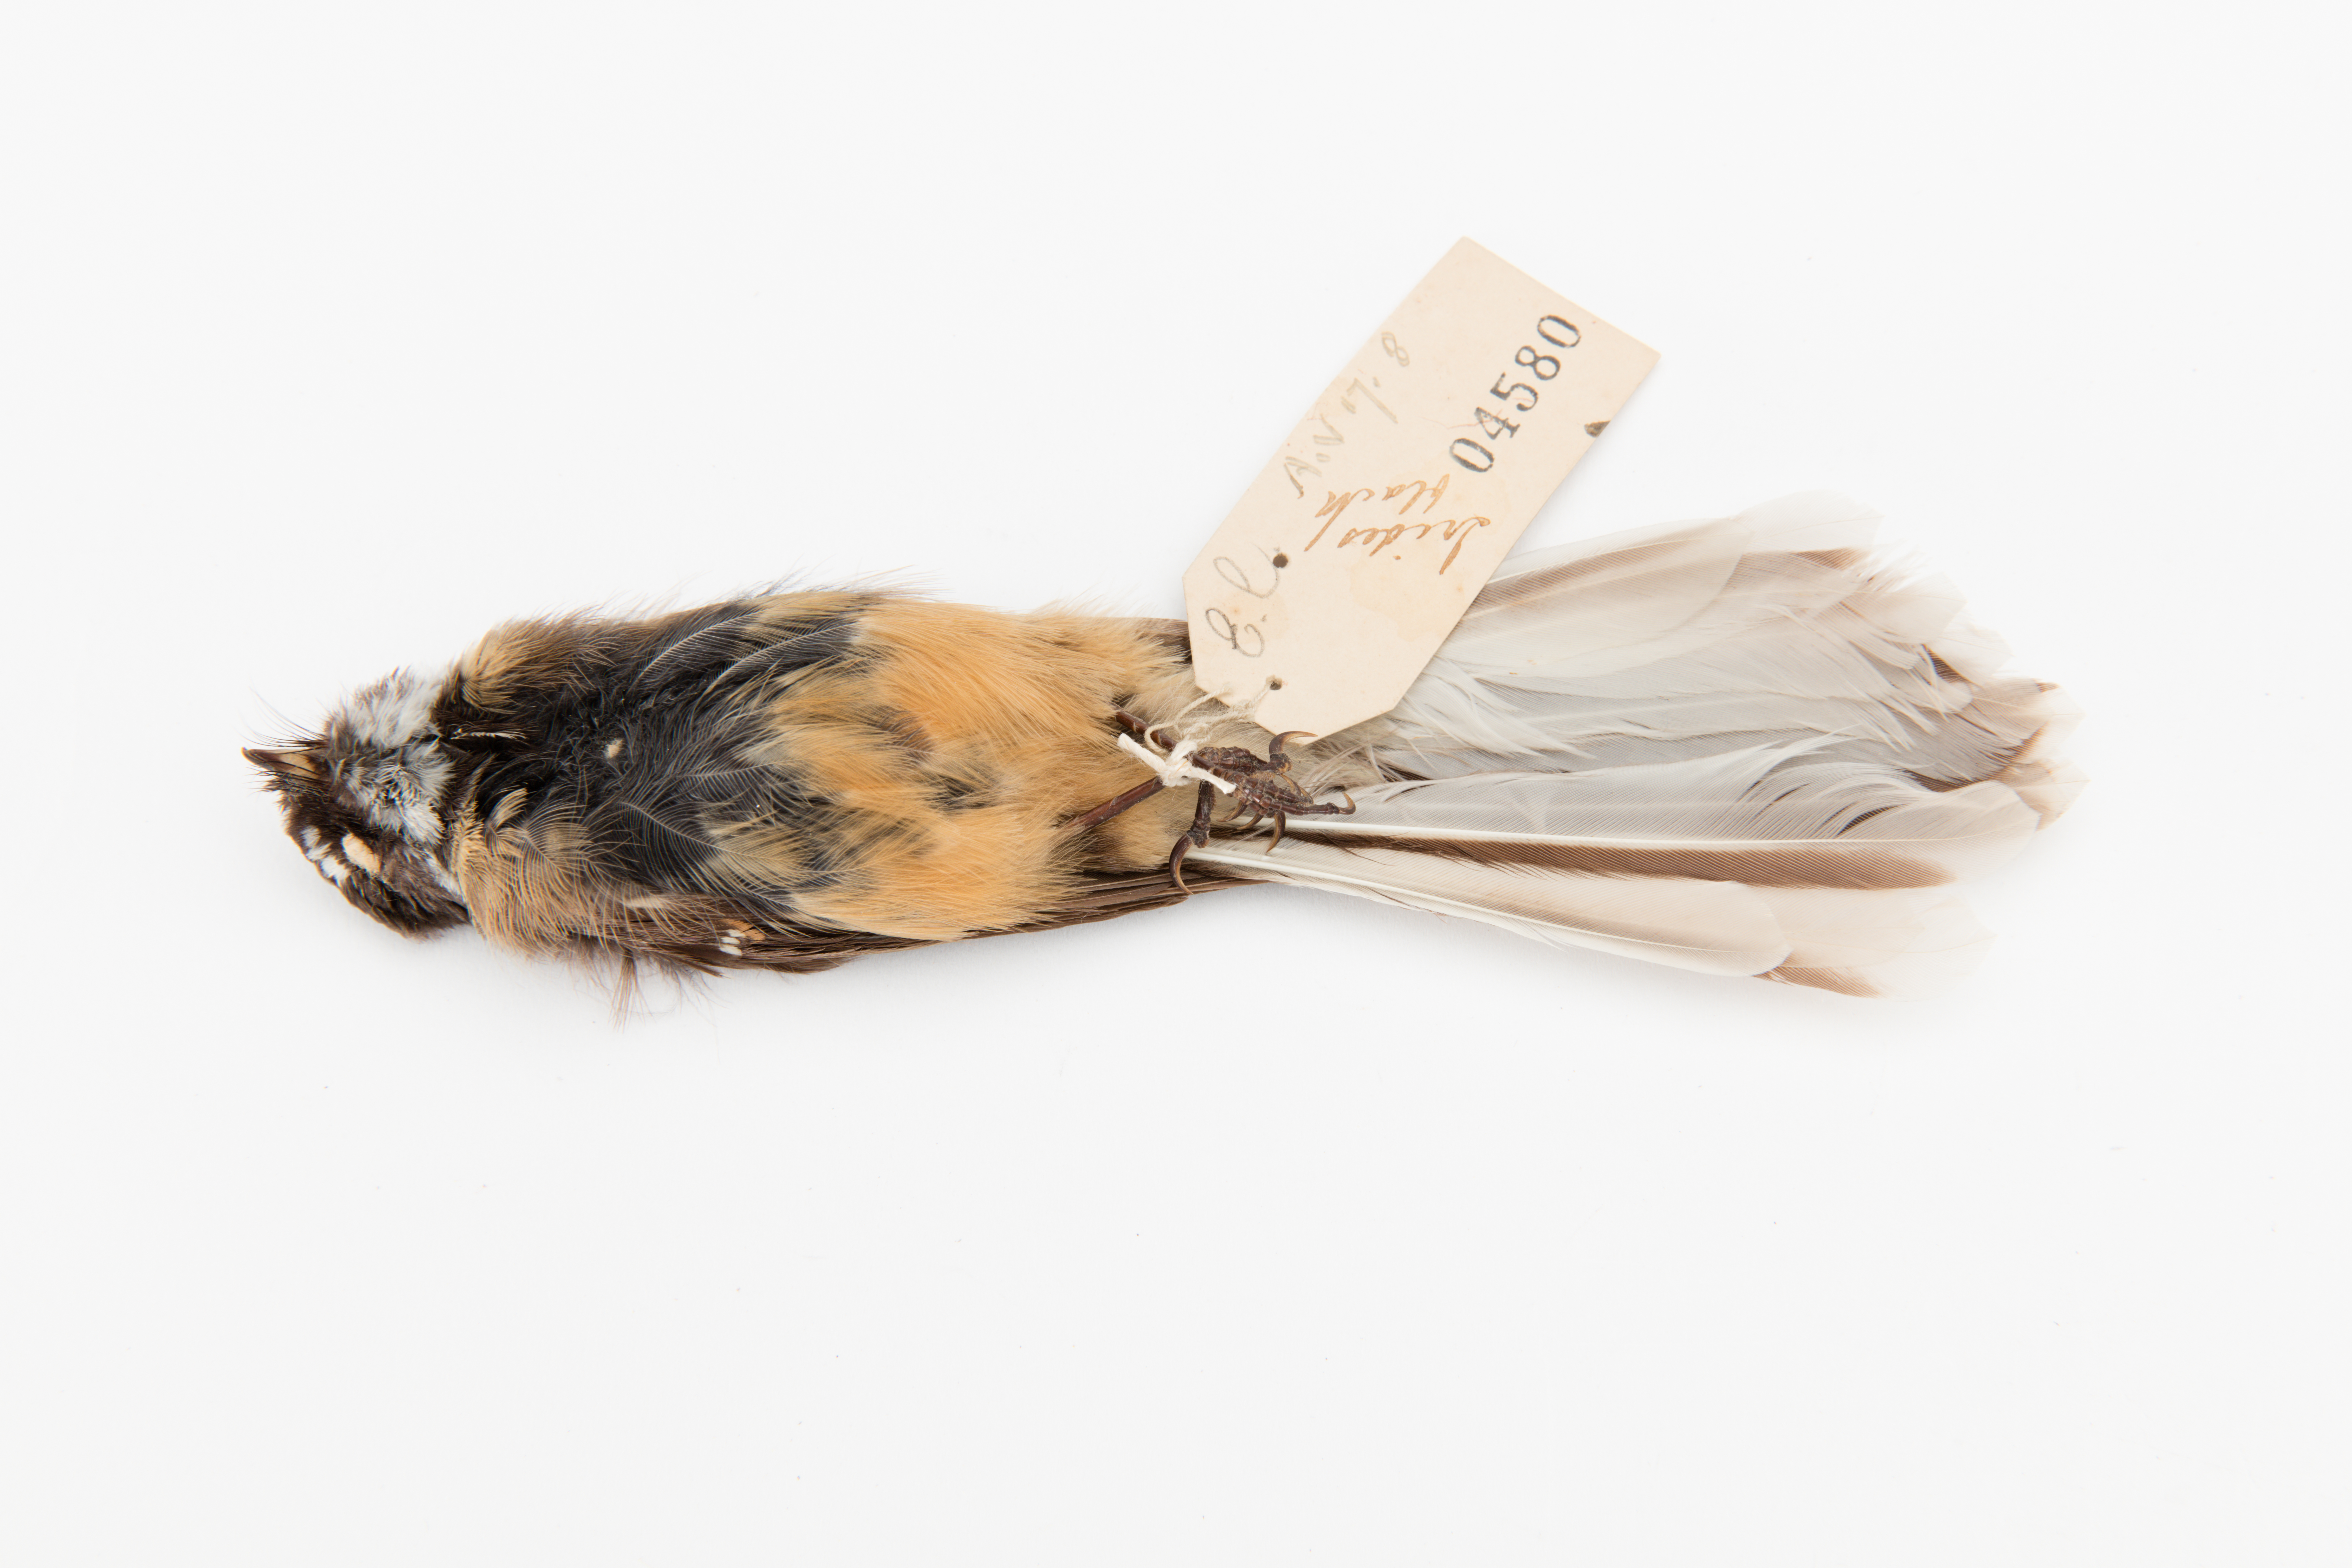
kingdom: Animalia
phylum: Chordata
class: Aves
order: Passeriformes
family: Rhipiduridae
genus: Rhipidura
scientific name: Rhipidura fuliginosa
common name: New zealand fantail
